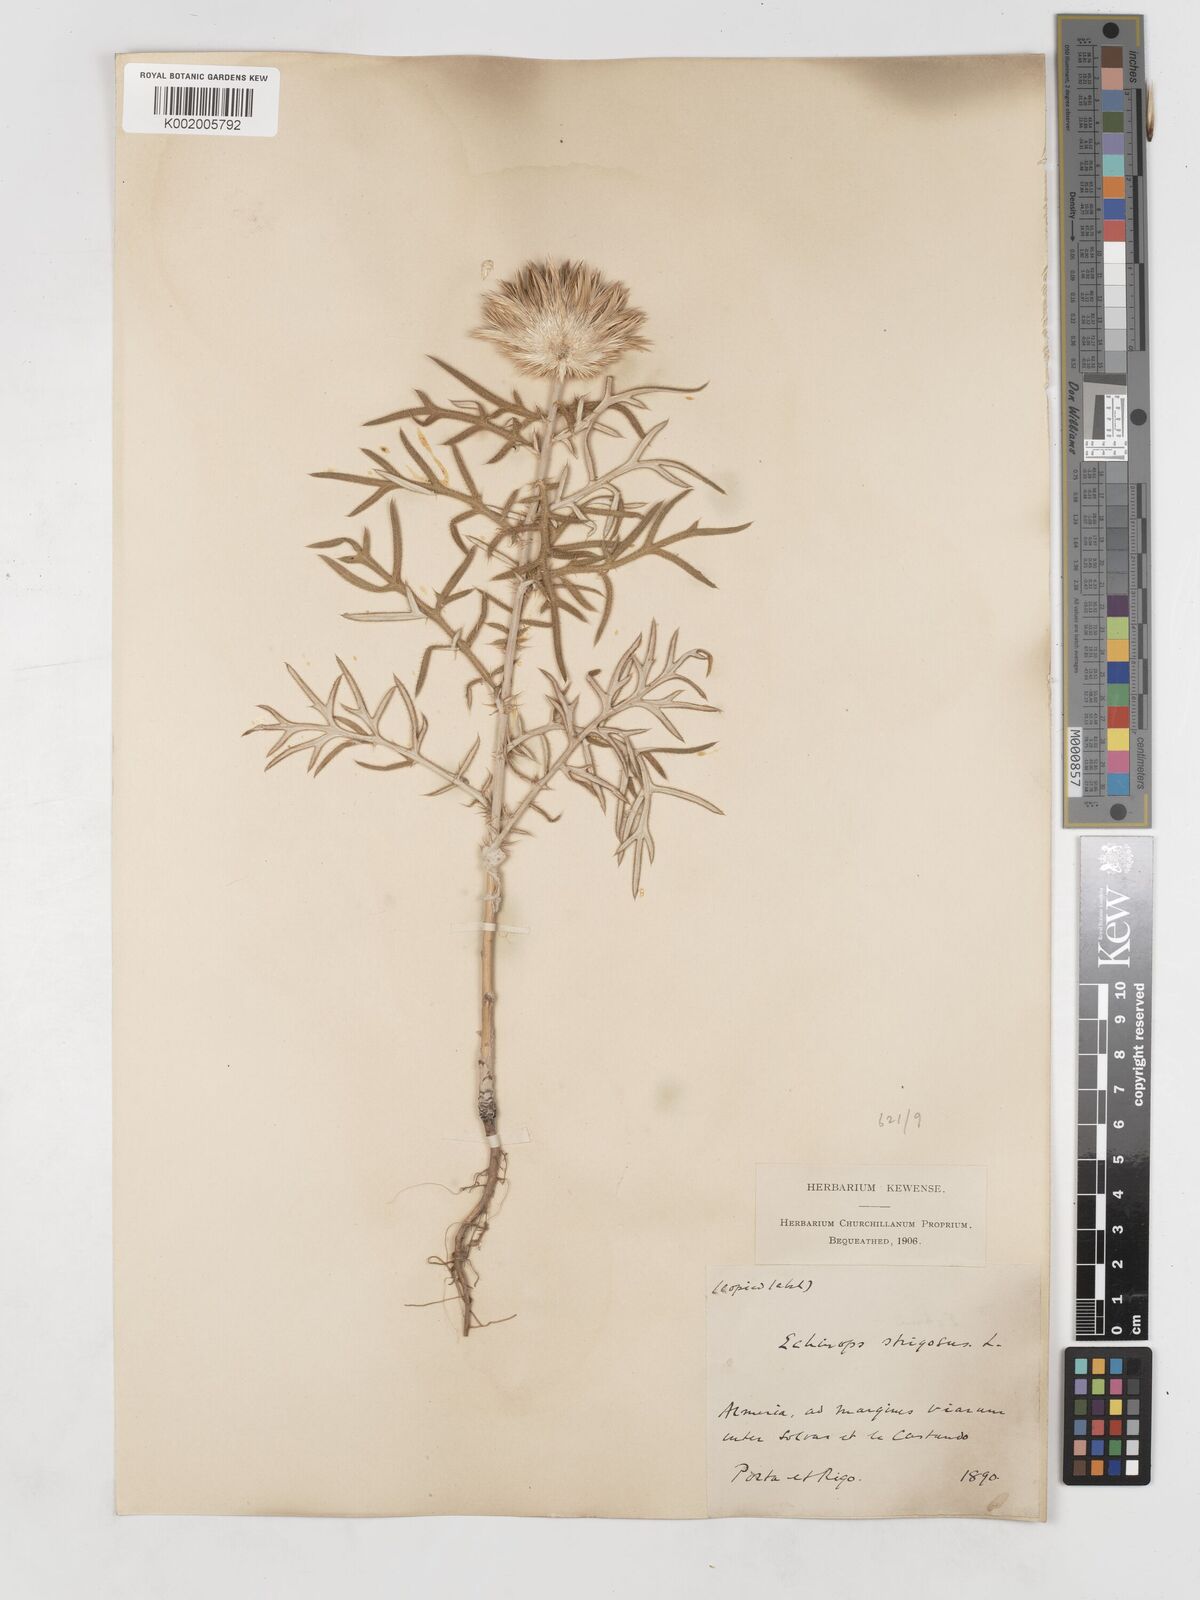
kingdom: Plantae
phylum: Tracheophyta
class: Magnoliopsida
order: Asterales
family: Asteraceae
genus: Echinops
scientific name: Echinops strigosus
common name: Rough-leaf globe thistle
